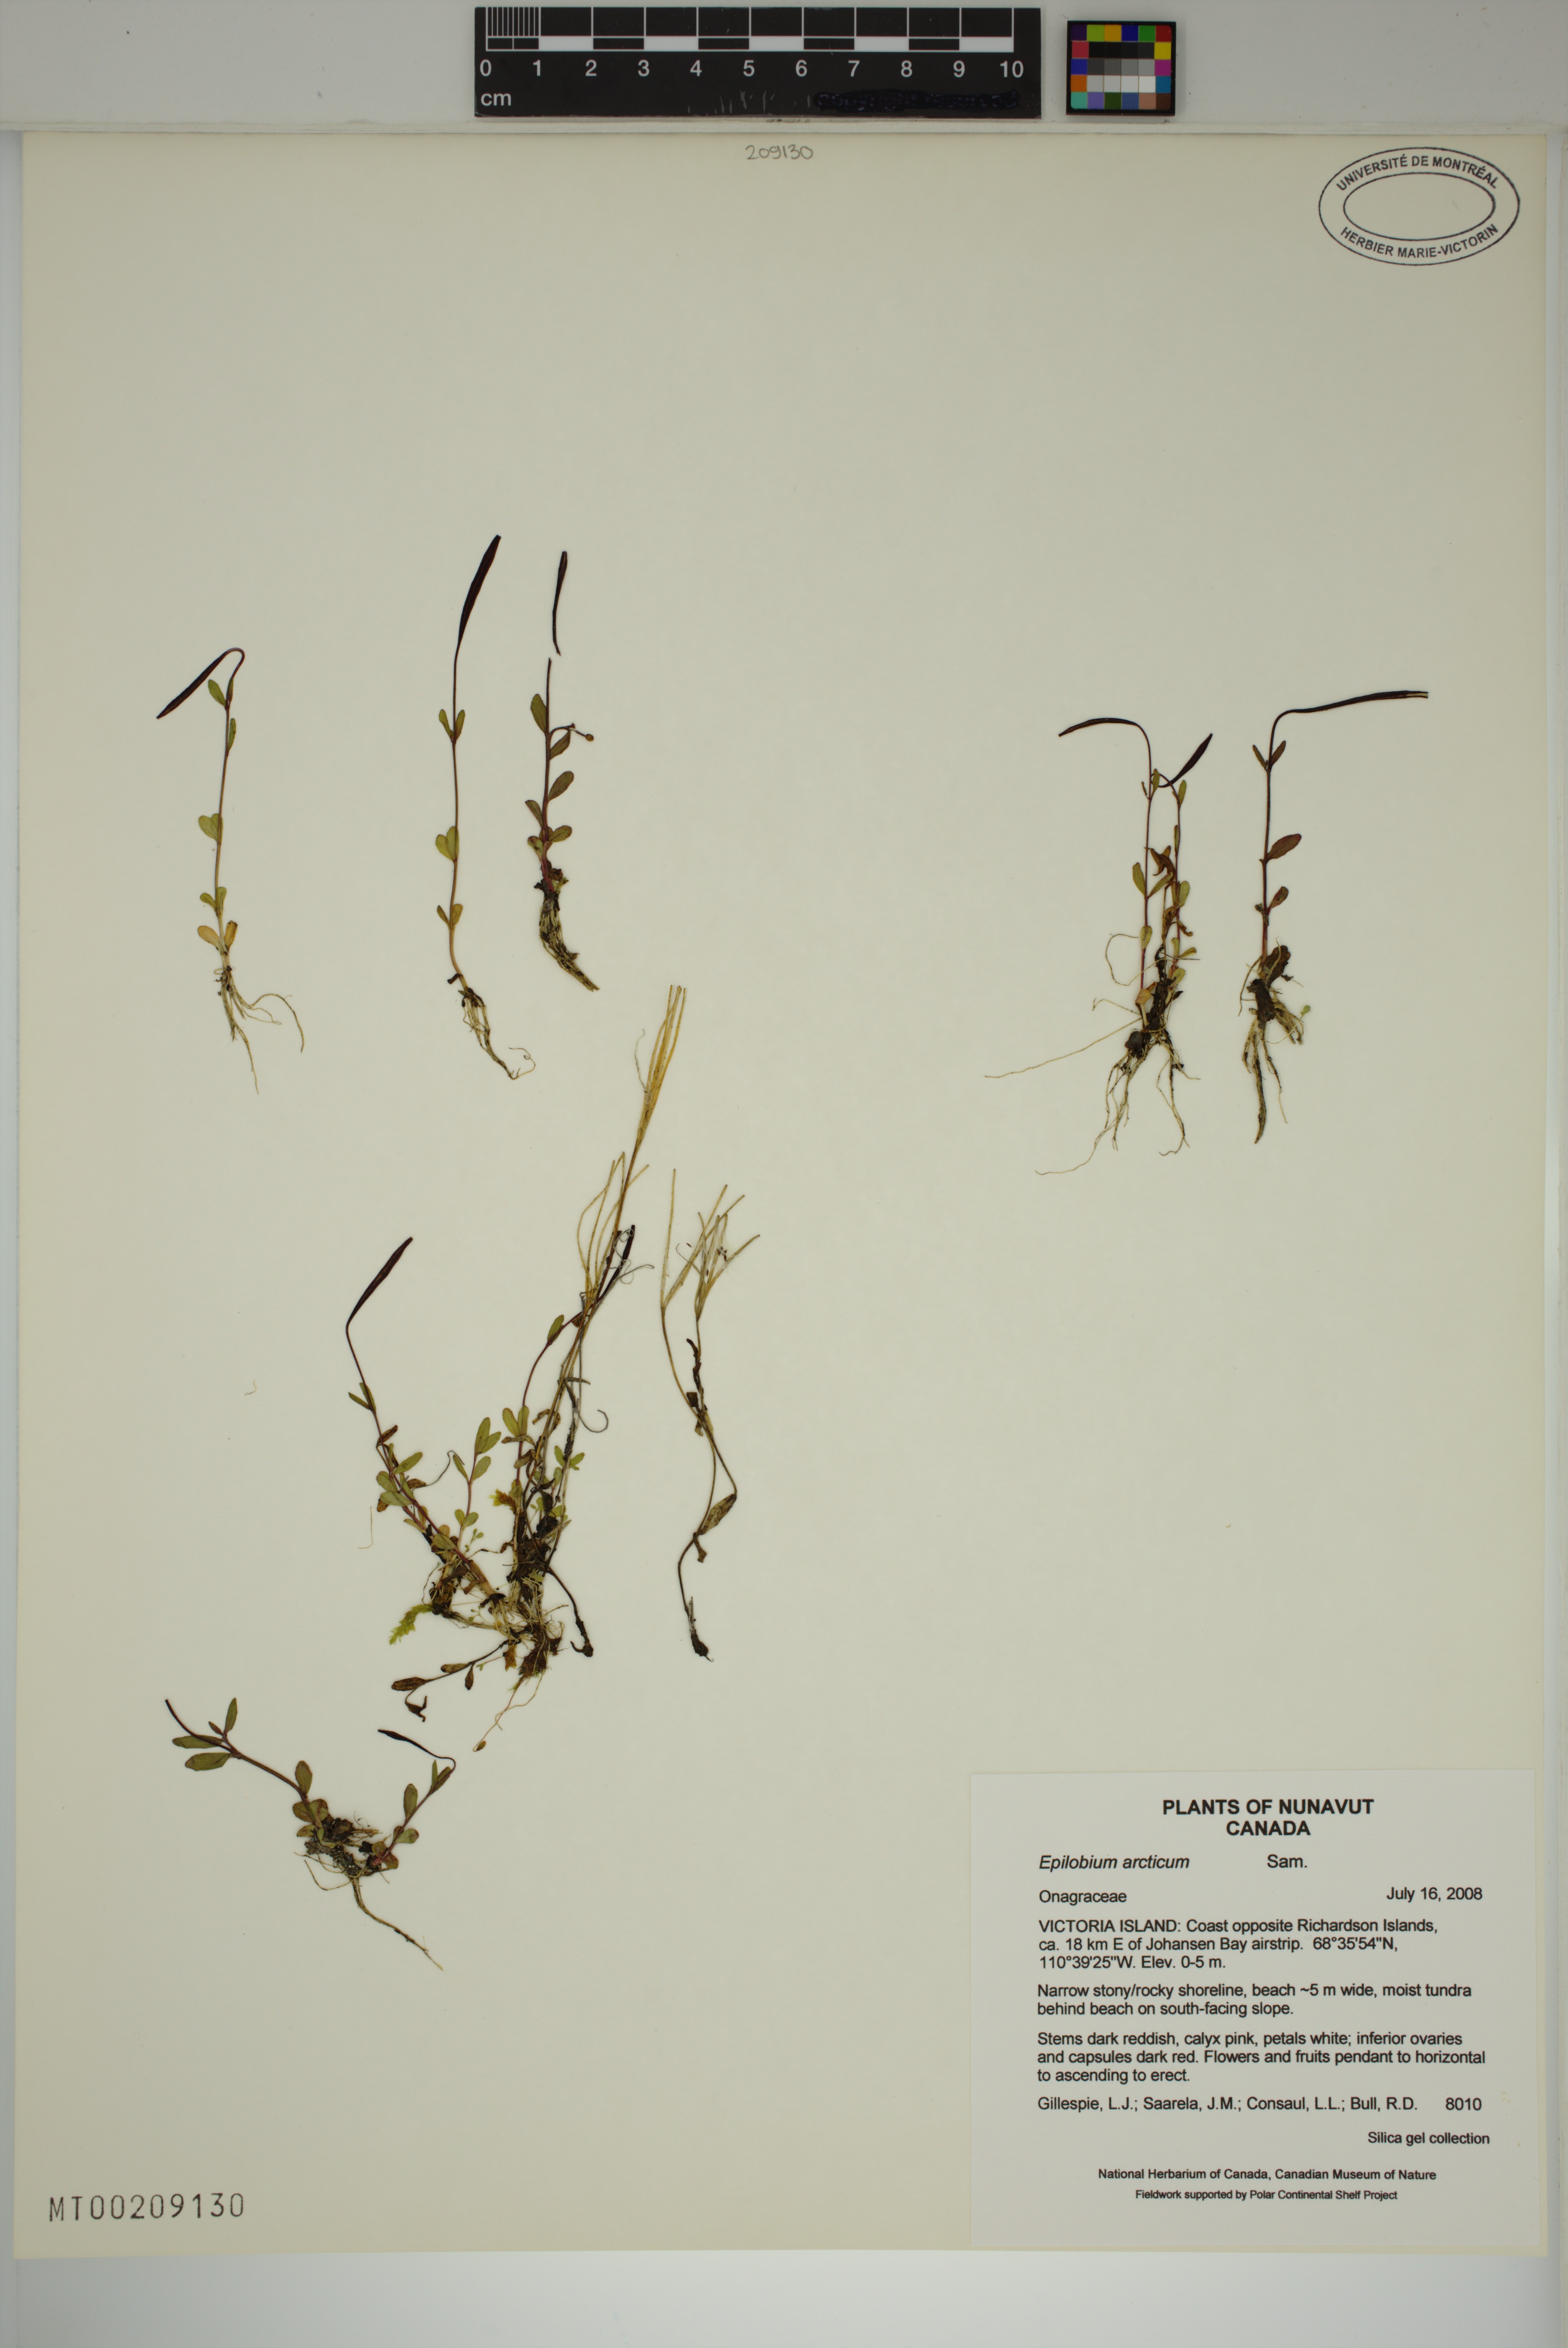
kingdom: Plantae
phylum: Tracheophyta
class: Magnoliopsida
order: Myrtales
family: Onagraceae
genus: Epilobium
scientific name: Epilobium arcticum
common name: Arctic willowherb
